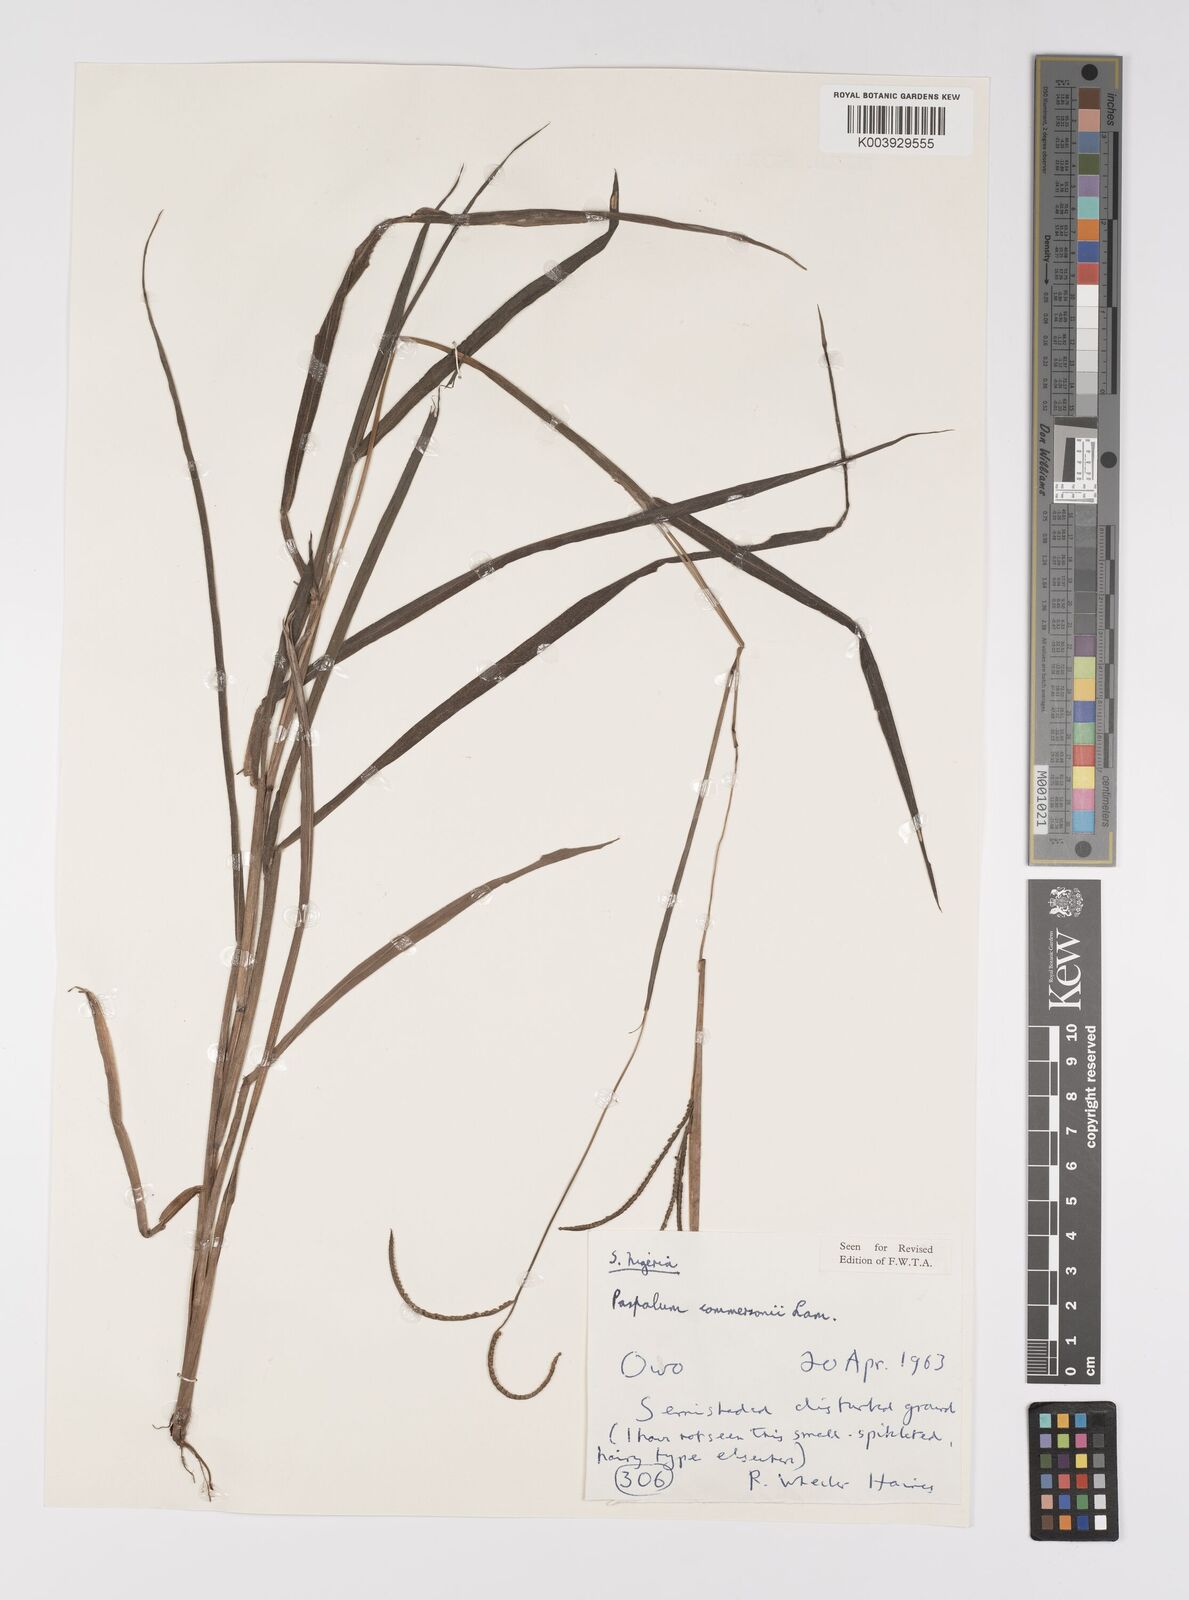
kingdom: Plantae
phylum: Tracheophyta
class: Liliopsida
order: Poales
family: Poaceae
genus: Paspalum
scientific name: Paspalum scrobiculatum
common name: Kodo millet
